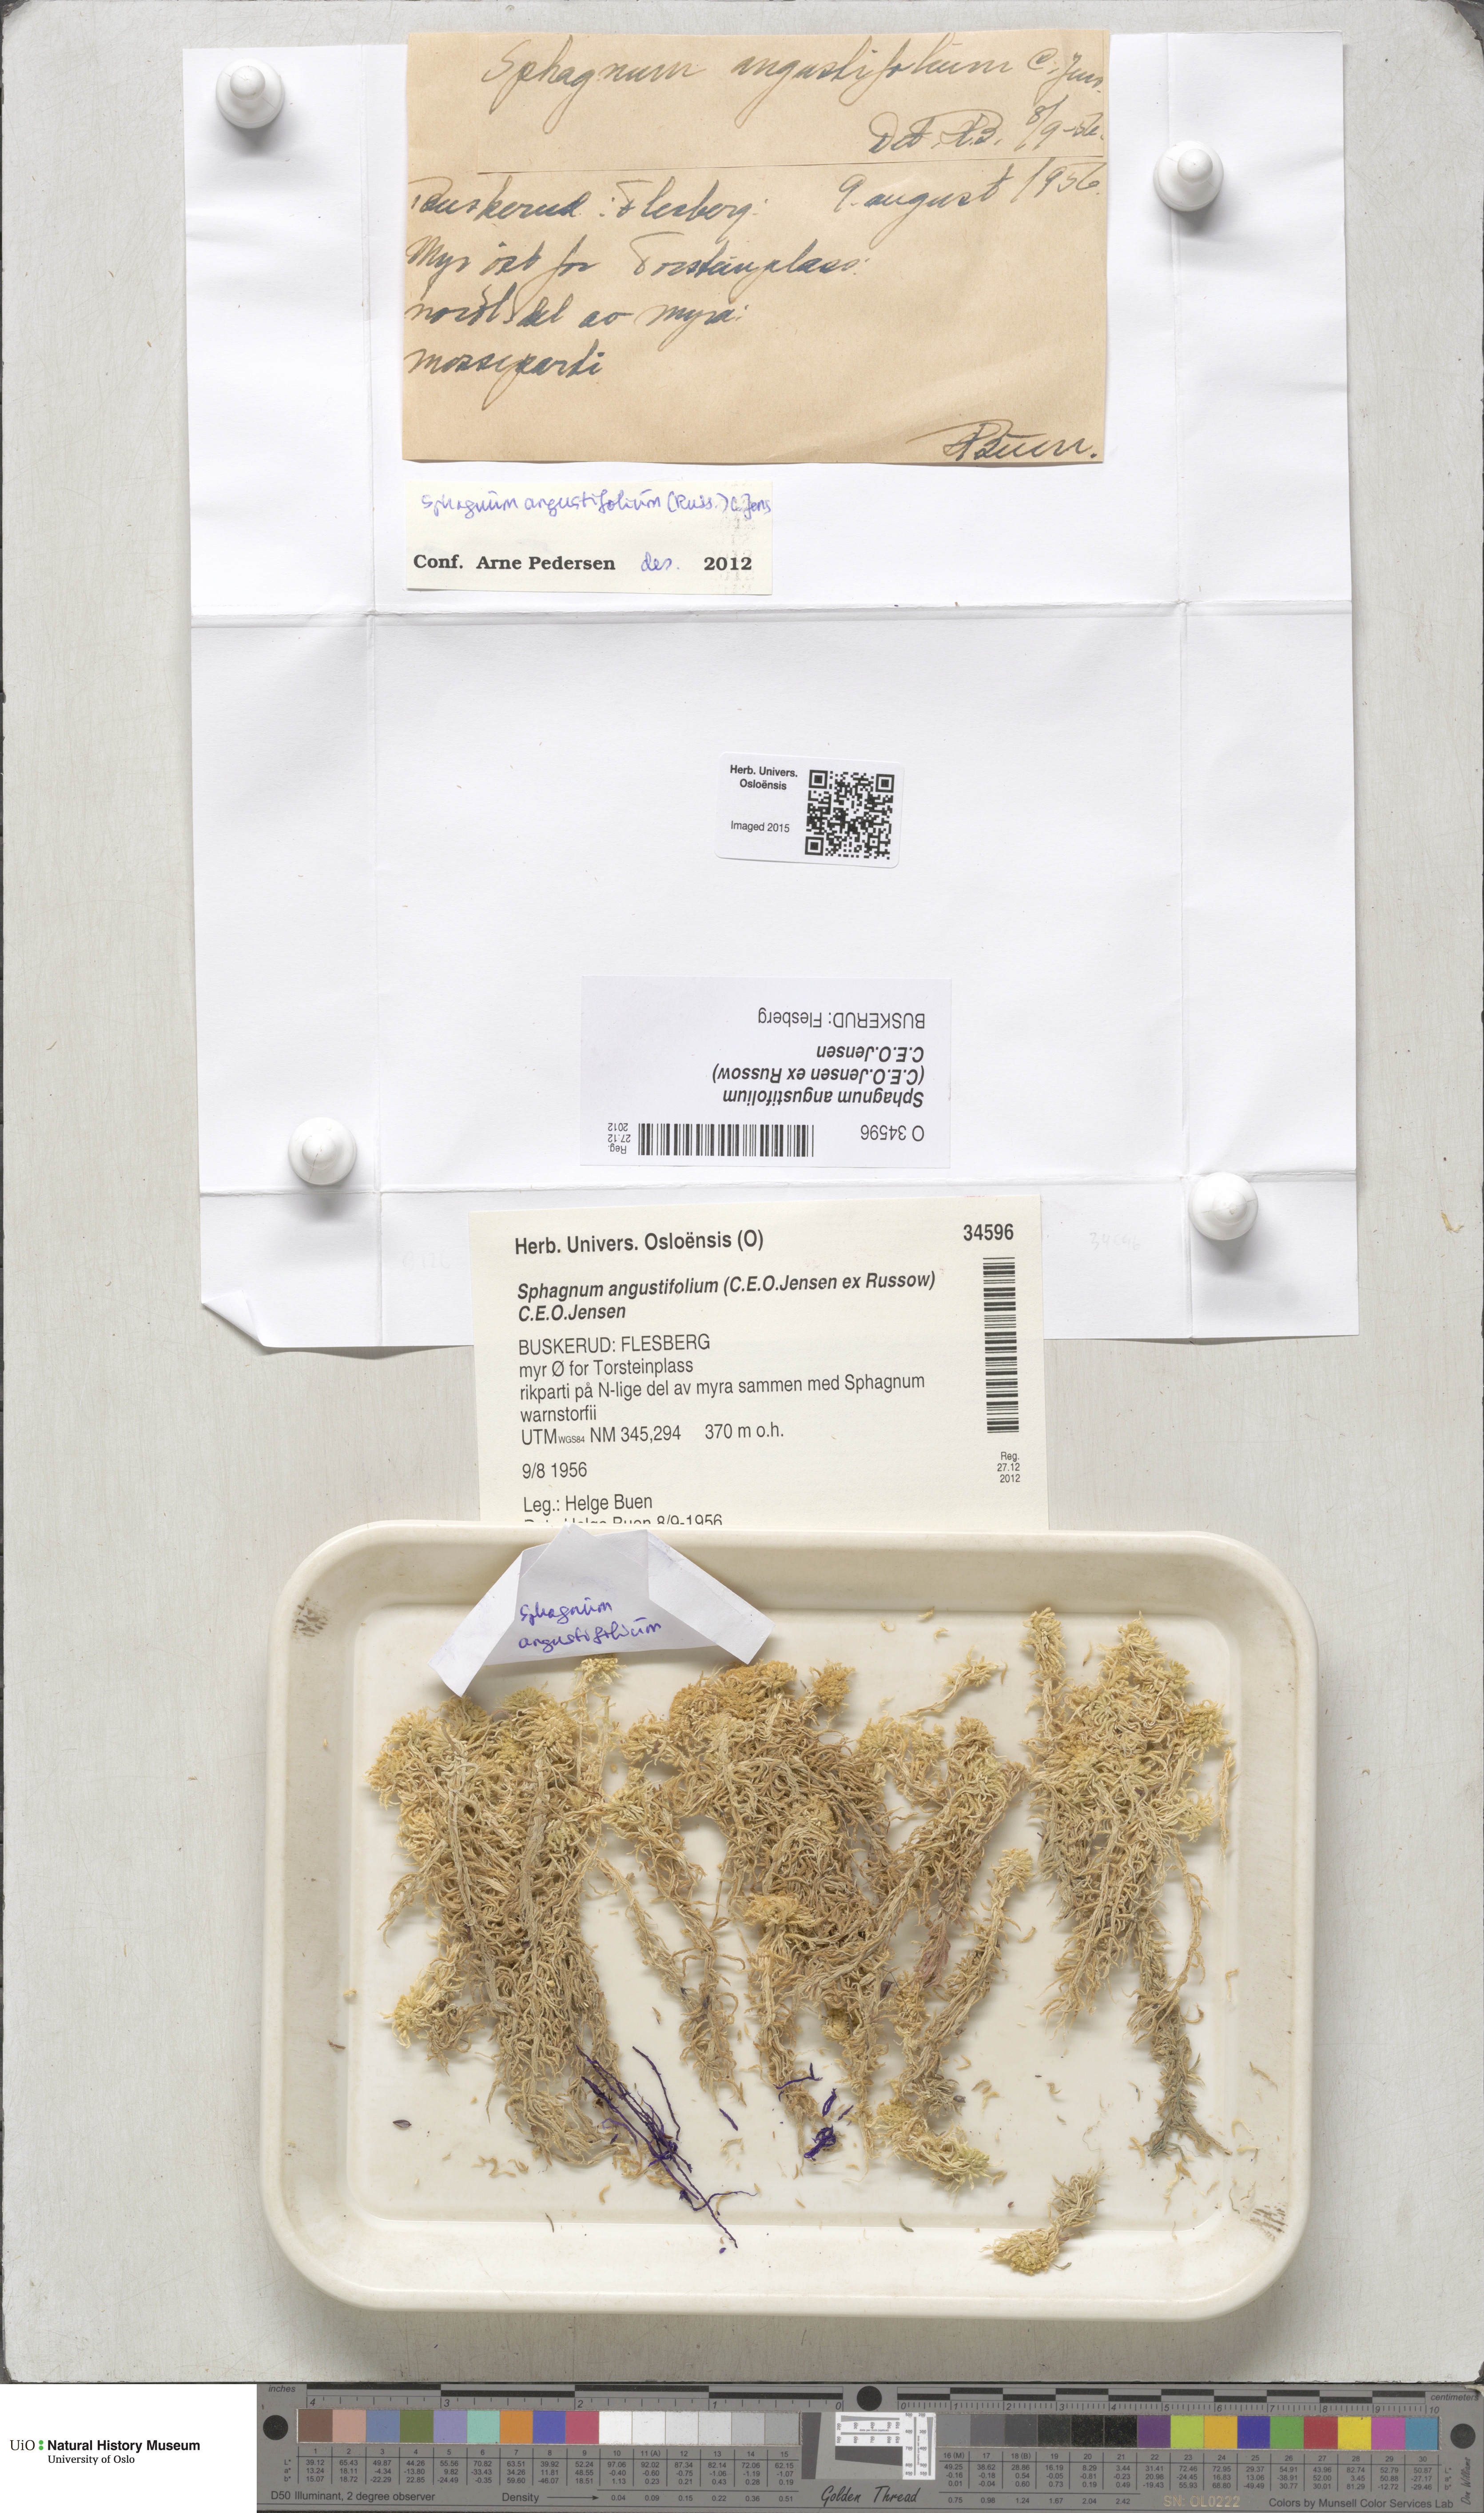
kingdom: Plantae
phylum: Bryophyta
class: Sphagnopsida
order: Sphagnales
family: Sphagnaceae
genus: Sphagnum
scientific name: Sphagnum angustifolium
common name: Narrow-leaved peat moss
